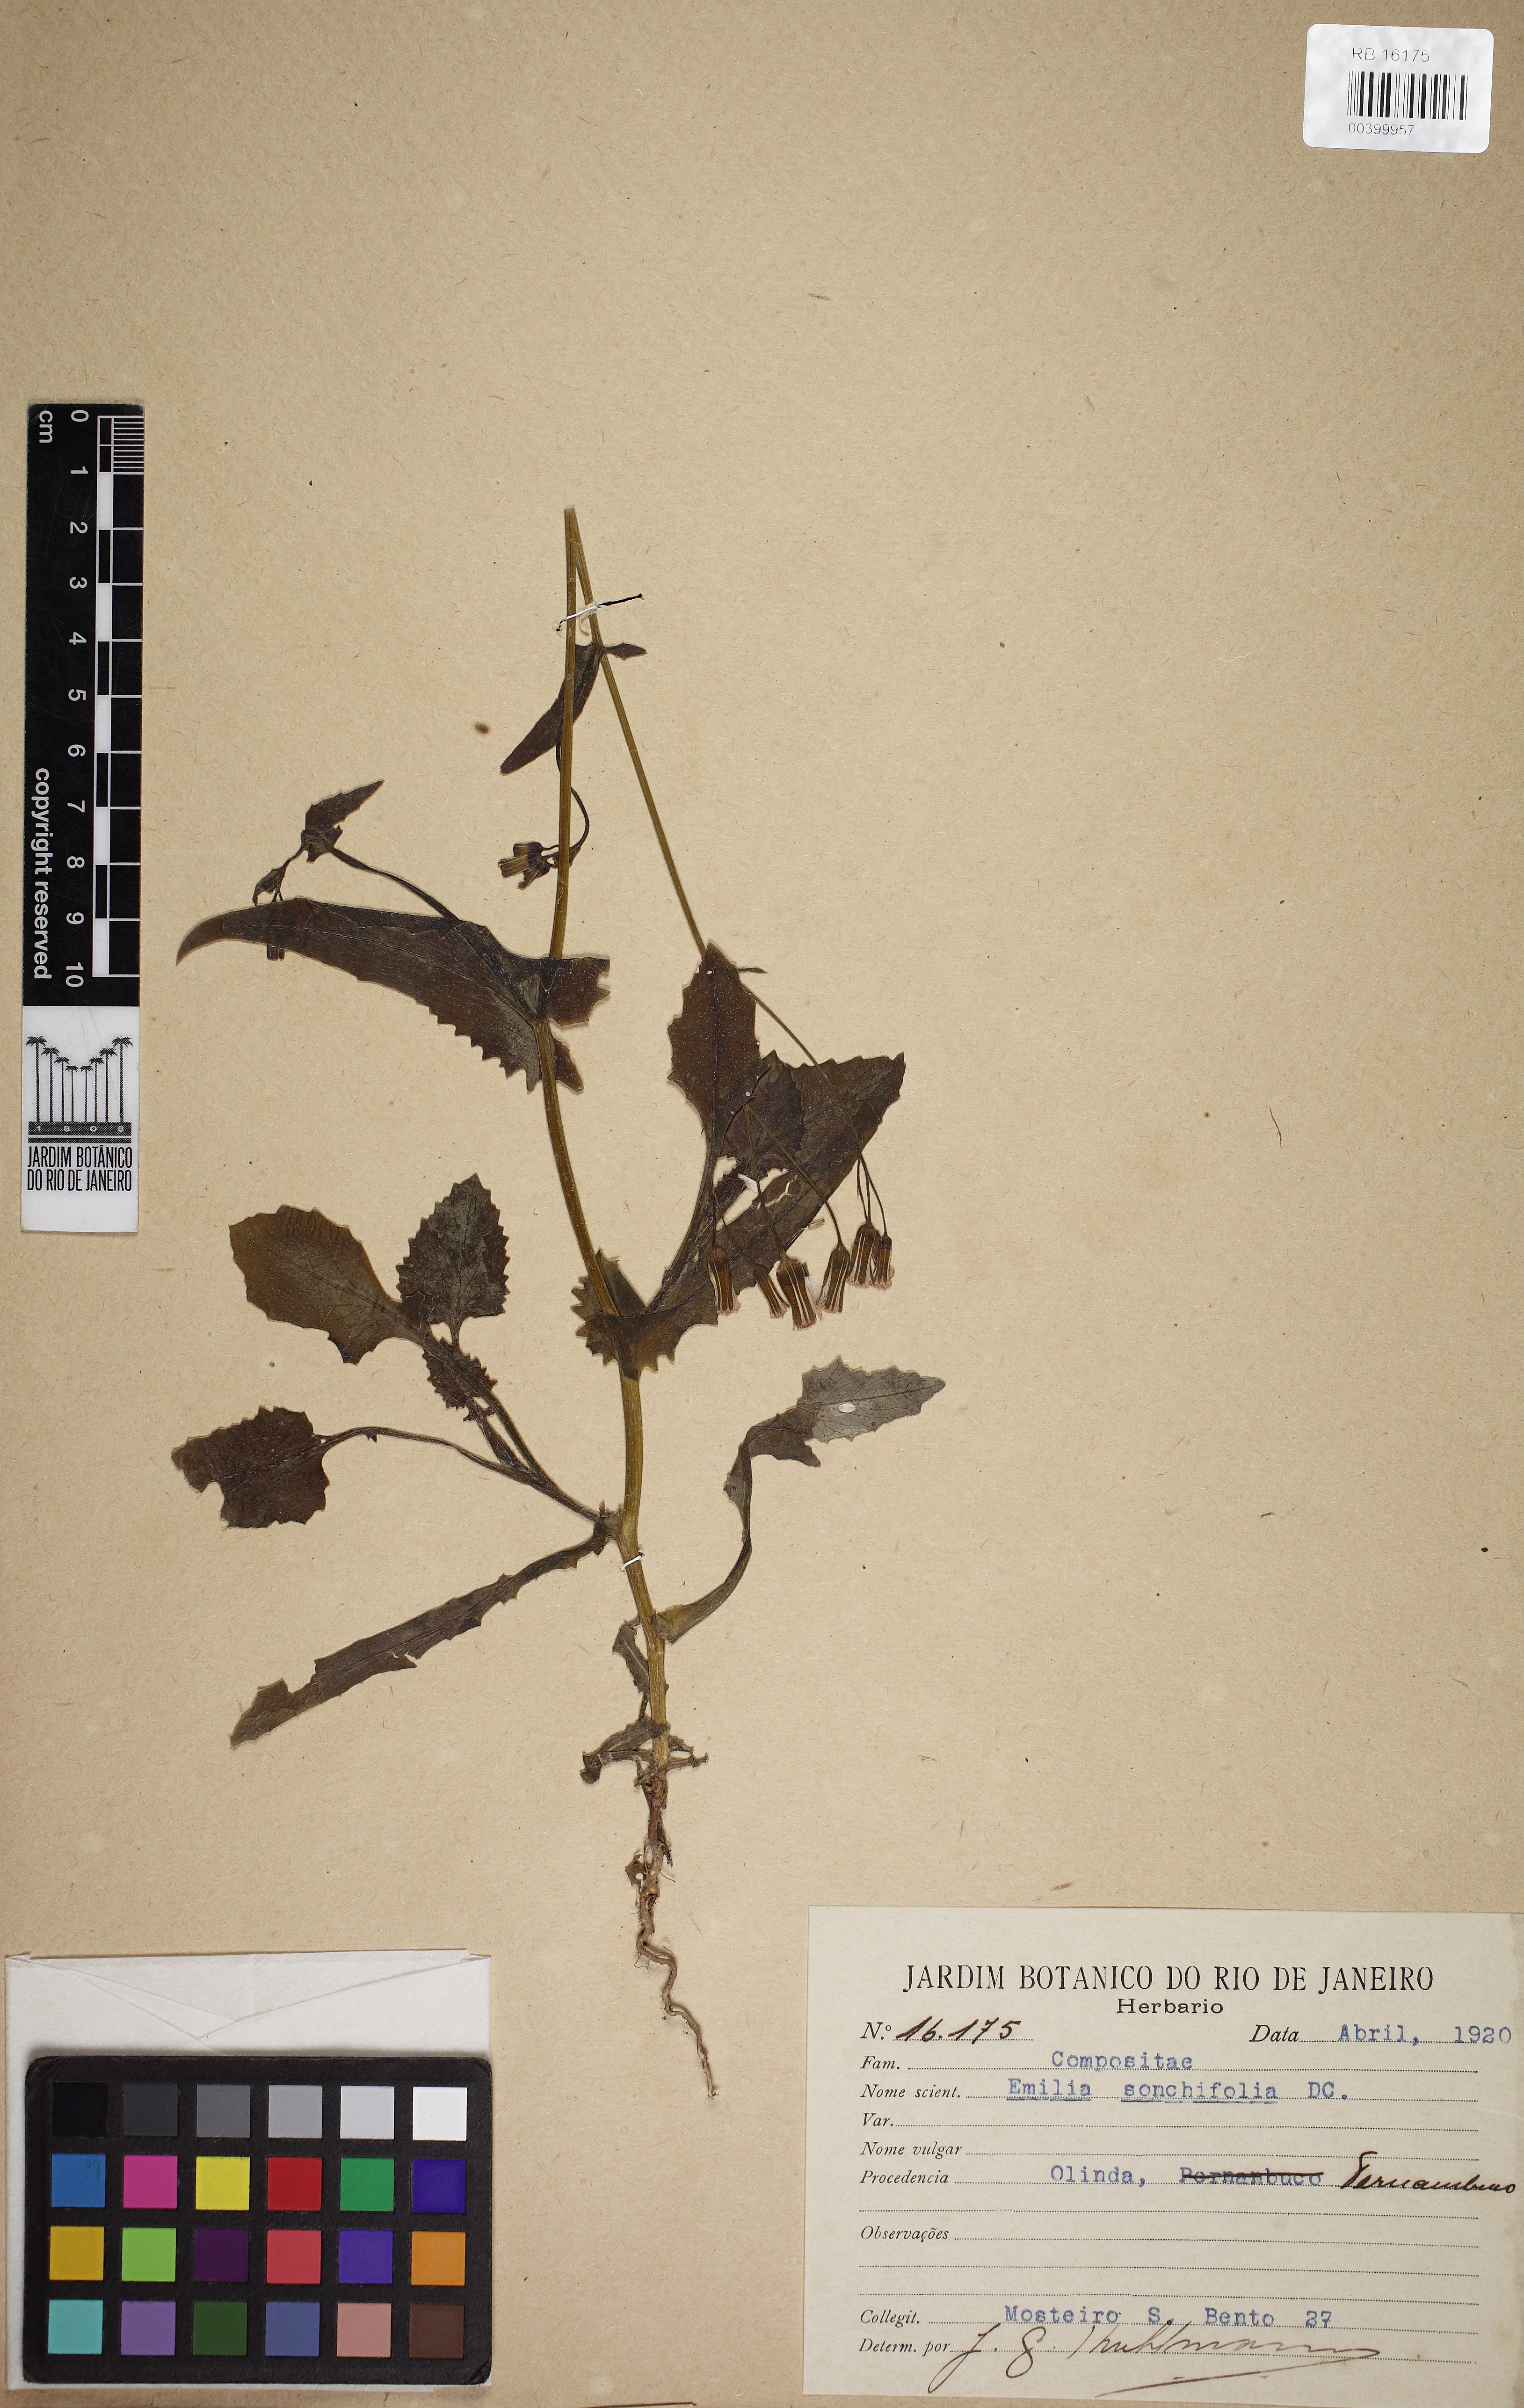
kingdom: Plantae
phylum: Tracheophyta
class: Magnoliopsida
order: Asterales
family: Asteraceae
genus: Emilia
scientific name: Emilia sonchifolia
